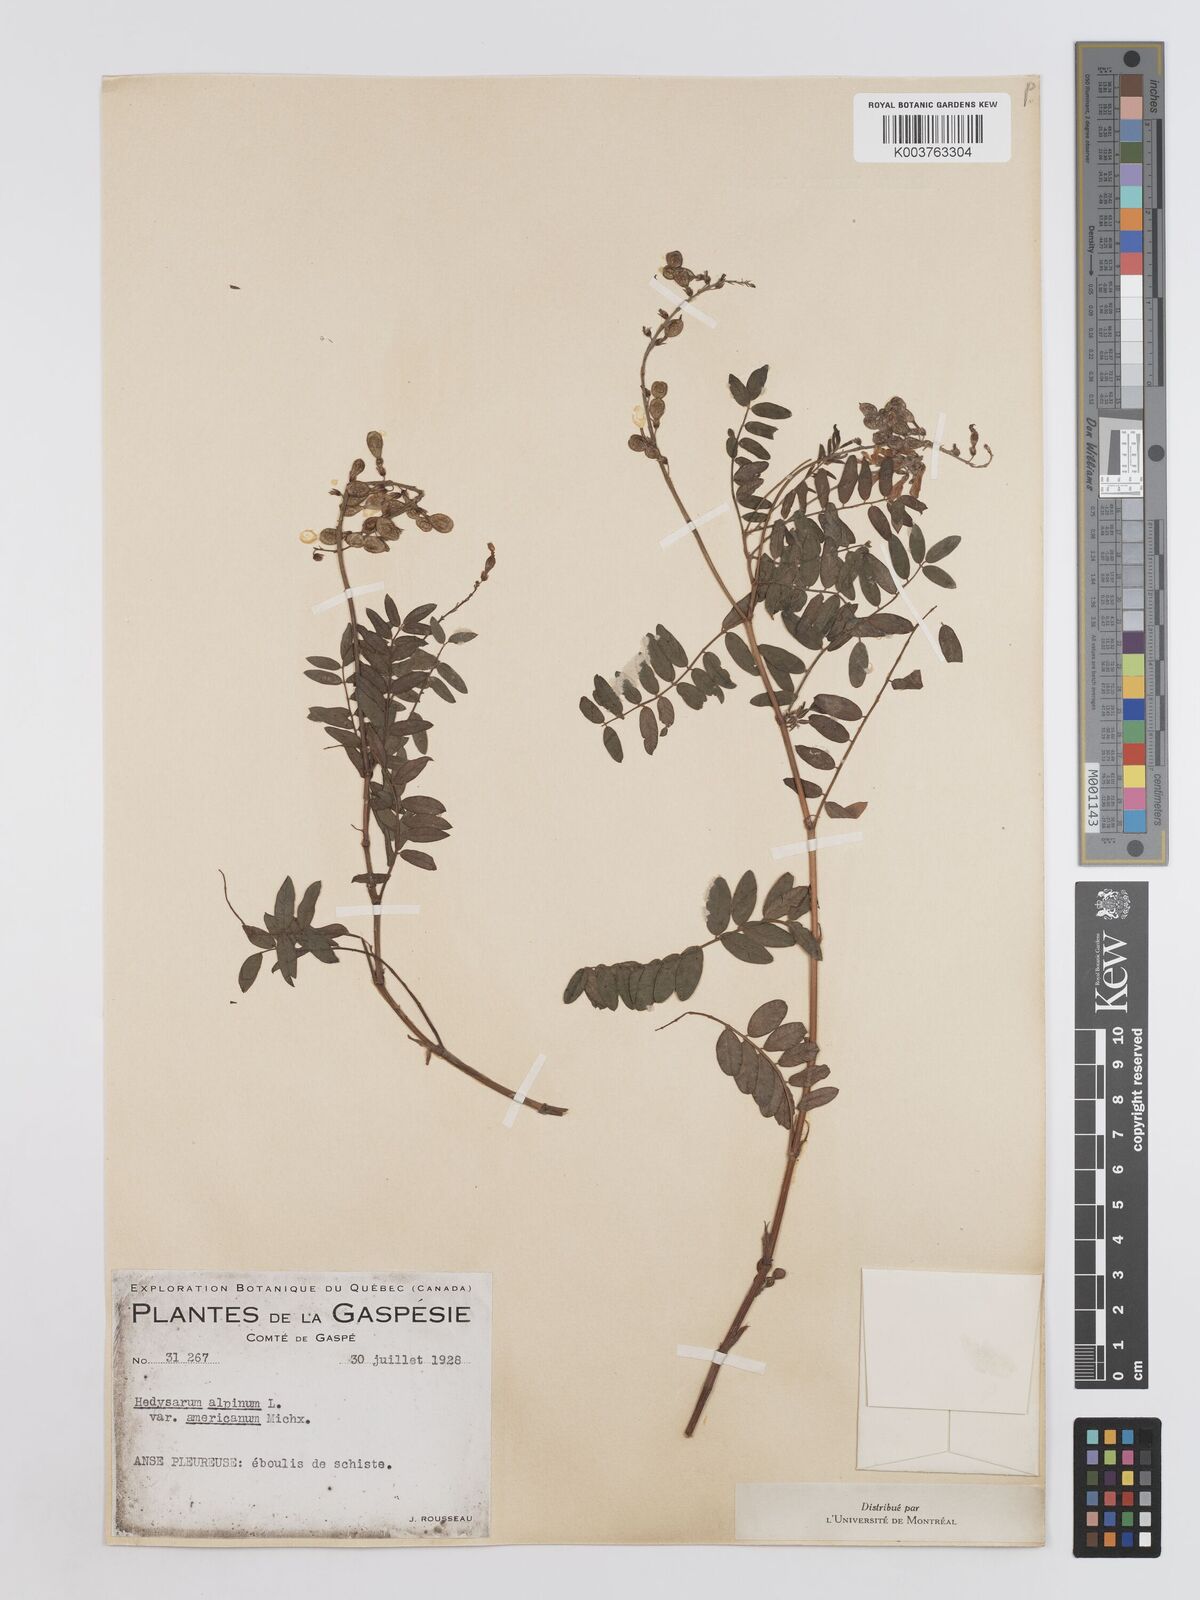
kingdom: Plantae
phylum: Tracheophyta
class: Magnoliopsida
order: Fabales
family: Fabaceae
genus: Hedysarum
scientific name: Hedysarum alpinum
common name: Alpine sweet-vetch
